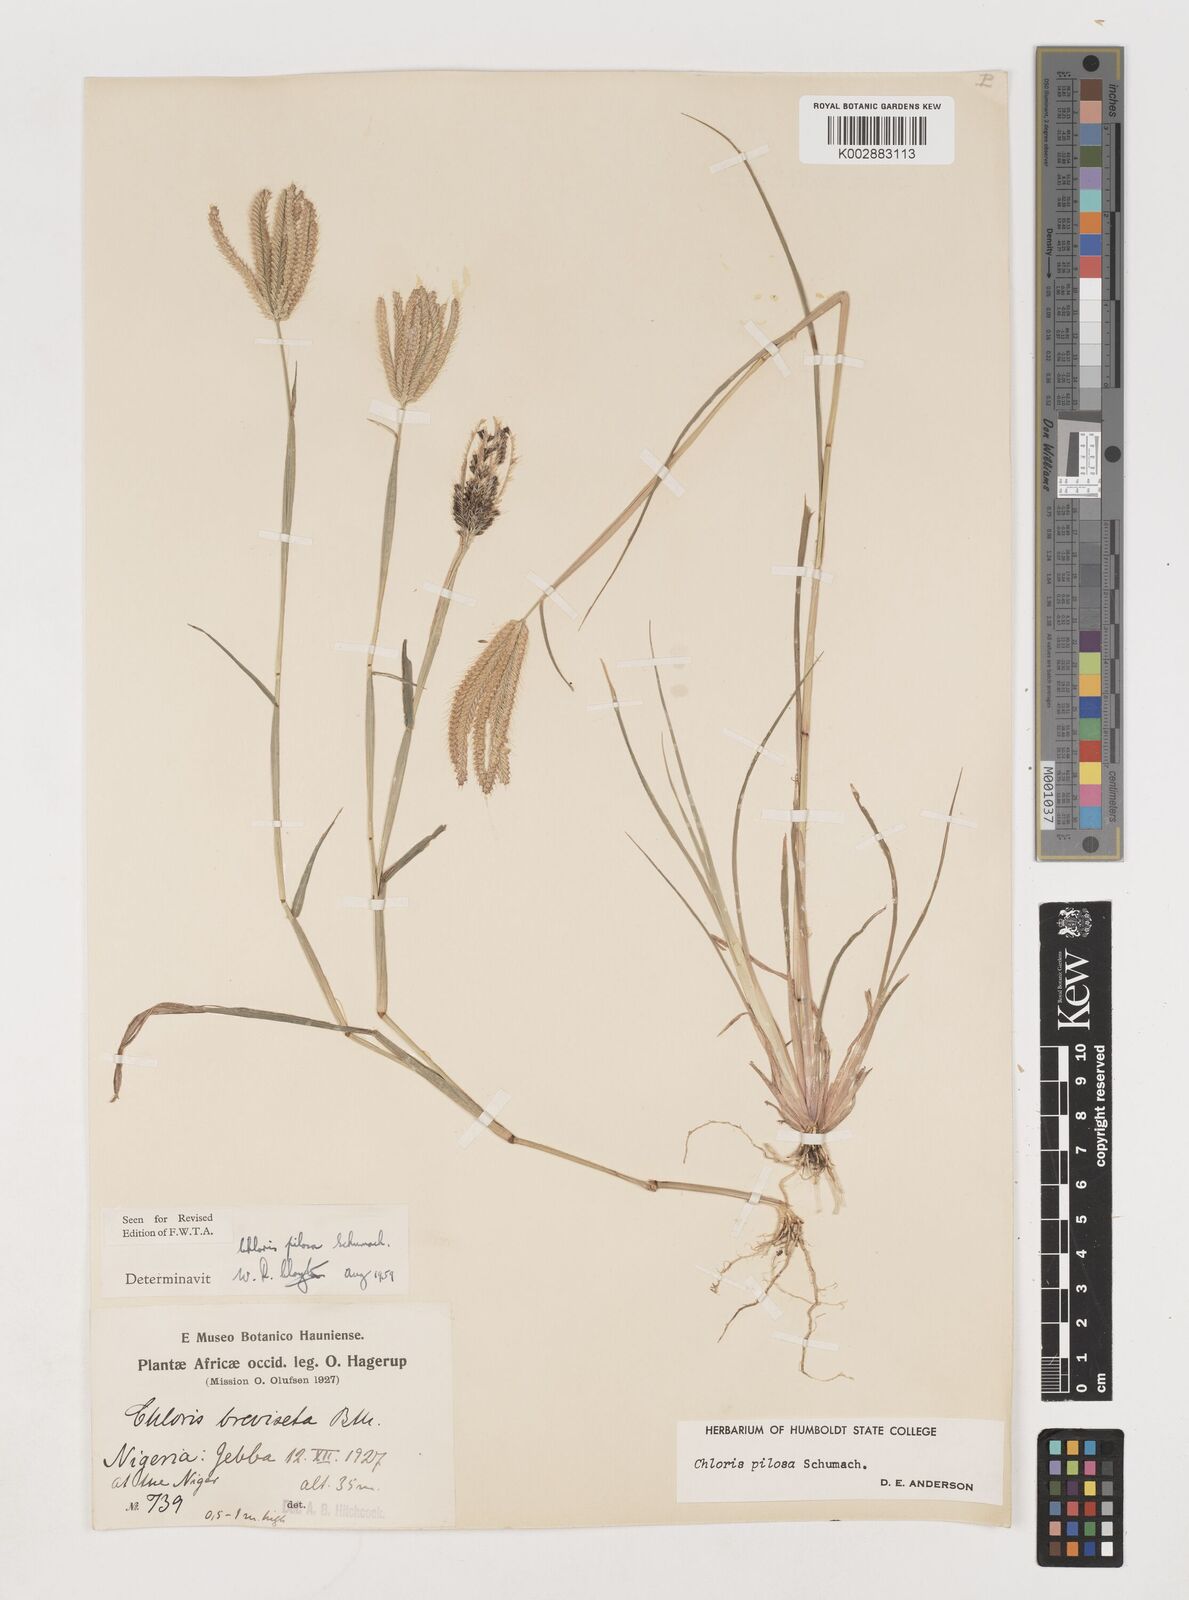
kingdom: Plantae
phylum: Tracheophyta
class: Liliopsida
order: Poales
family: Poaceae
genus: Chloris
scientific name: Chloris pilosa
